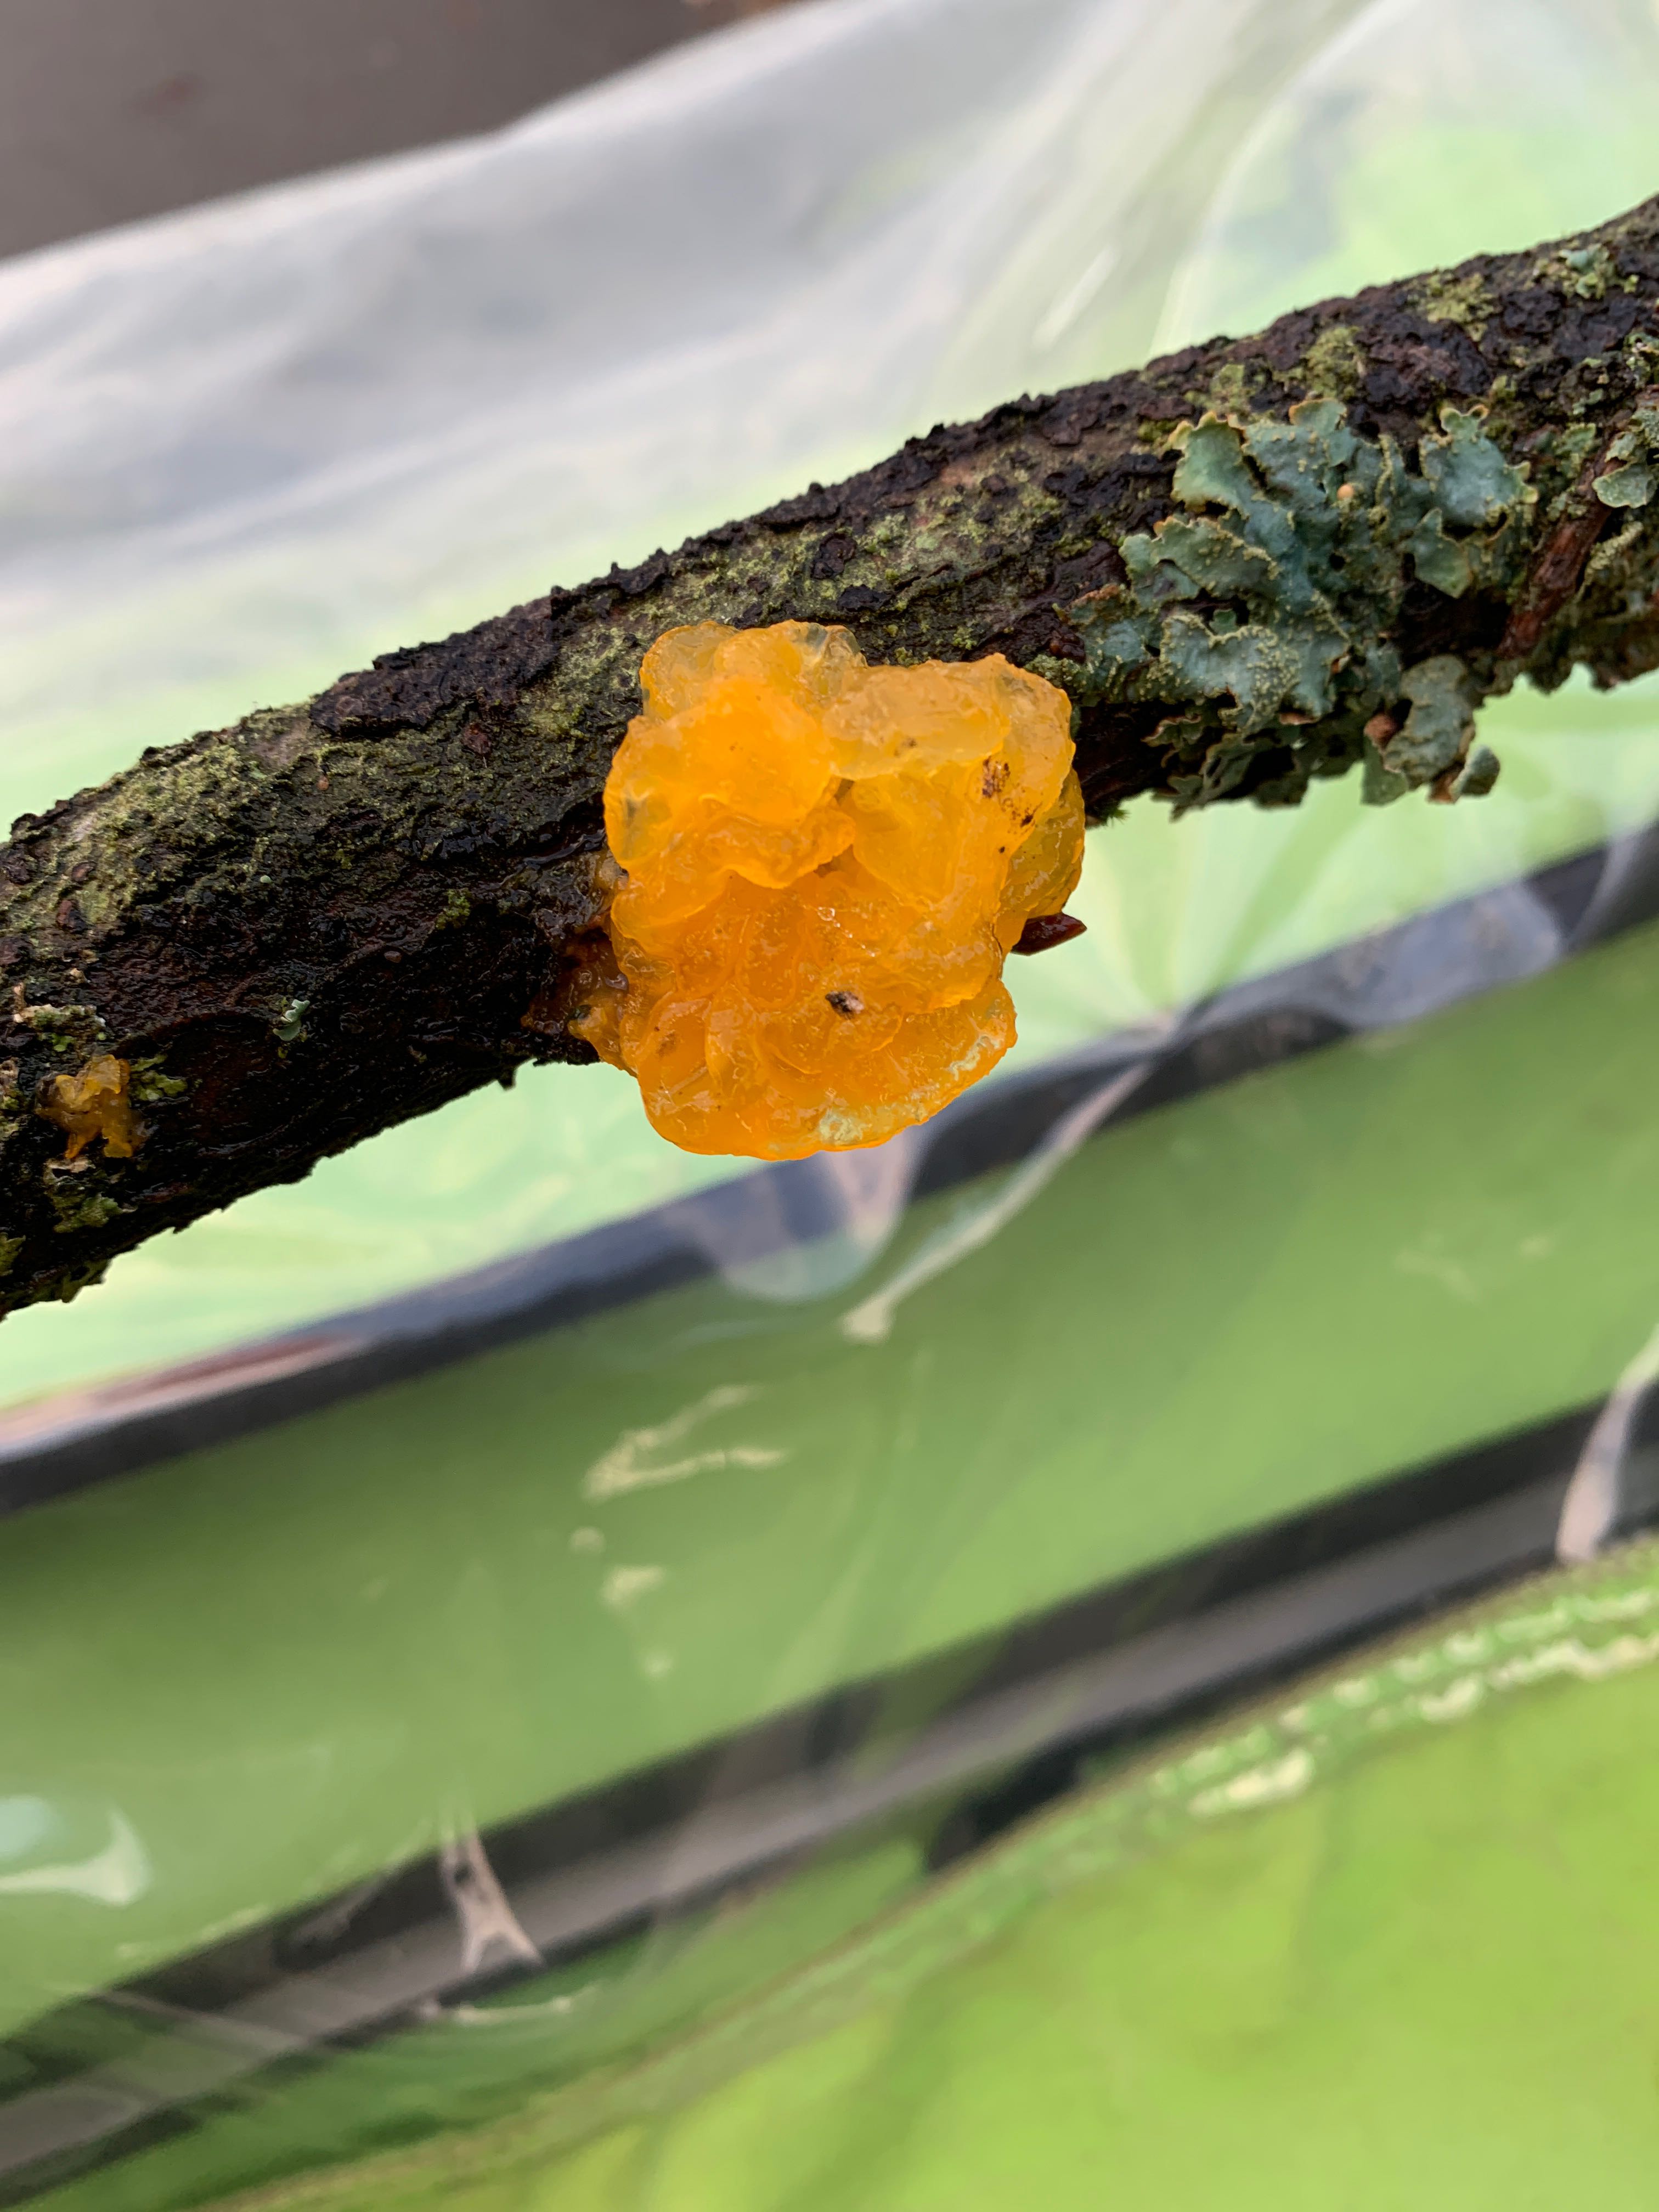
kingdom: Fungi
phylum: Basidiomycota
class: Tremellomycetes
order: Tremellales
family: Tremellaceae
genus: Tremella
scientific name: Tremella mesenterica
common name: gul bævresvamp
